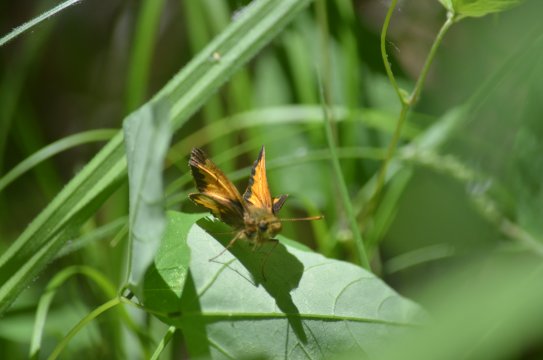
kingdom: Animalia
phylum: Arthropoda
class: Insecta
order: Lepidoptera
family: Hesperiidae
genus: Lon
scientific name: Lon hobomok
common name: Hobomok Skipper
